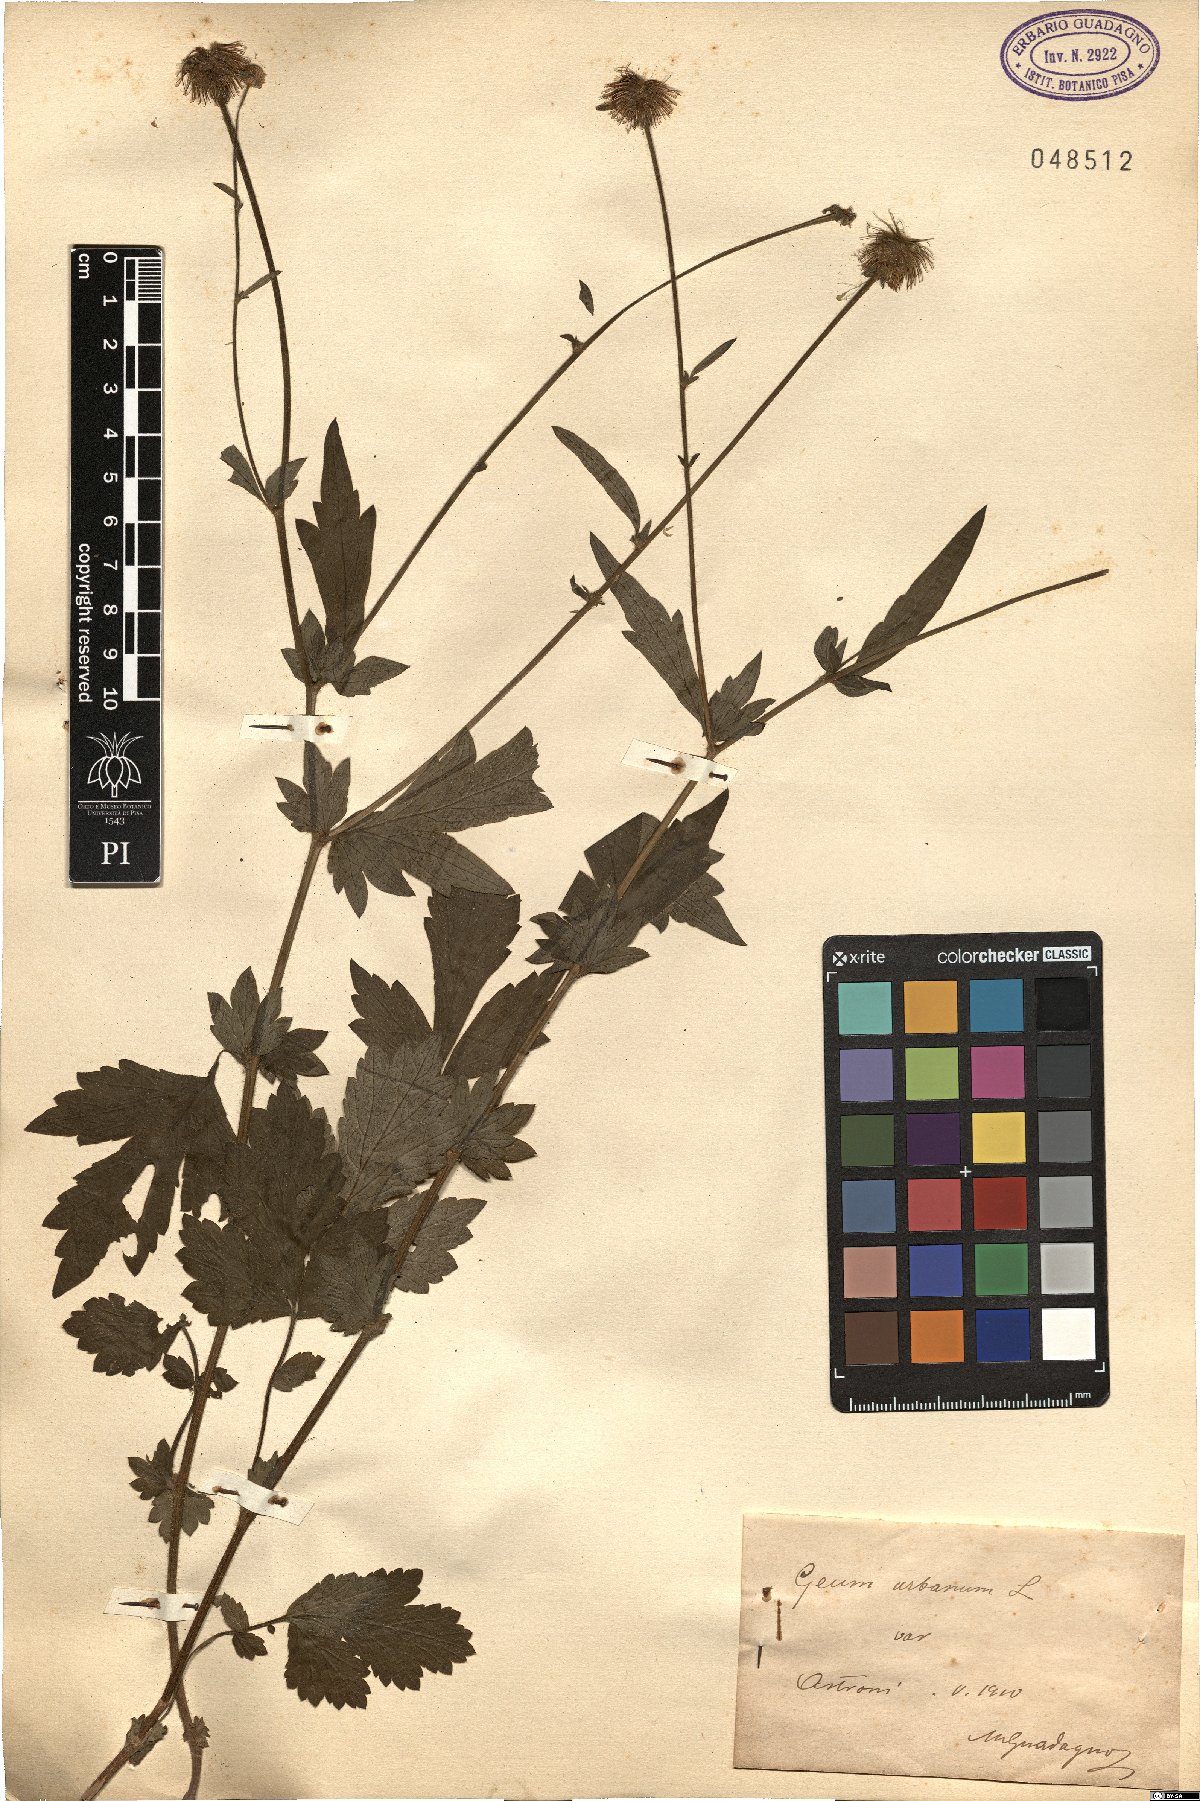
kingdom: Plantae
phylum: Tracheophyta
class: Magnoliopsida
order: Rosales
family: Rosaceae
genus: Geum
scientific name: Geum urbanum
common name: Wood avens
